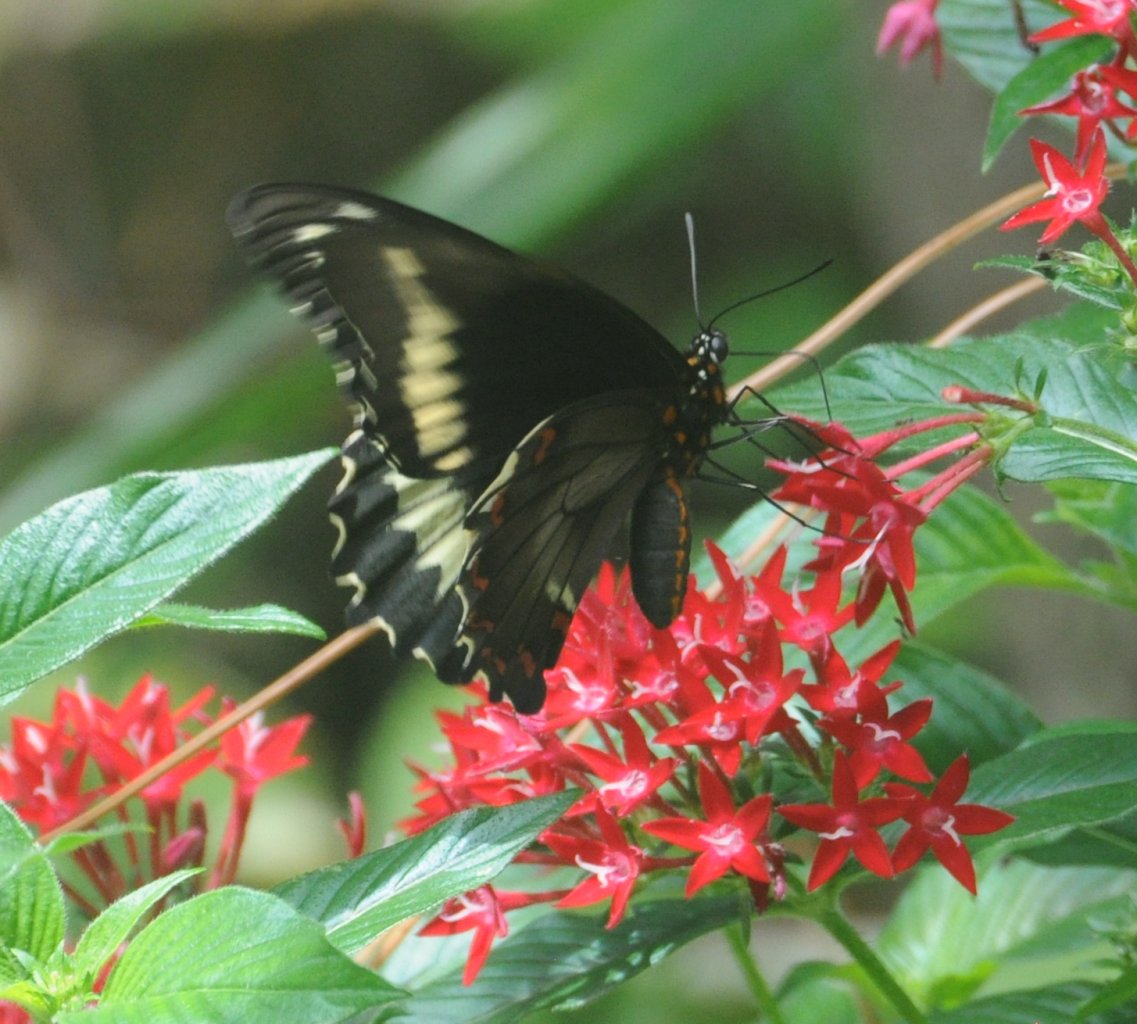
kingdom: Animalia
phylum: Arthropoda
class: Insecta
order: Lepidoptera
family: Papilionidae
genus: Battus
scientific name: Battus polydamas
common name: Polydamas Swallowtail
